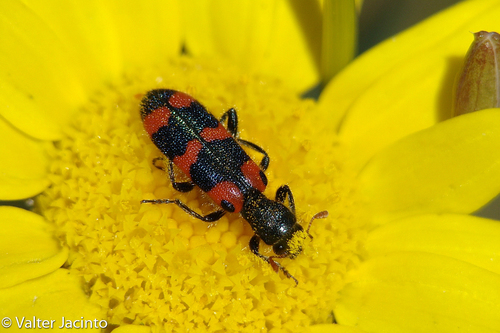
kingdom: Animalia
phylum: Arthropoda
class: Insecta
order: Coleoptera
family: Cleridae
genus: Trichodes
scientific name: Trichodes leucopsideus
